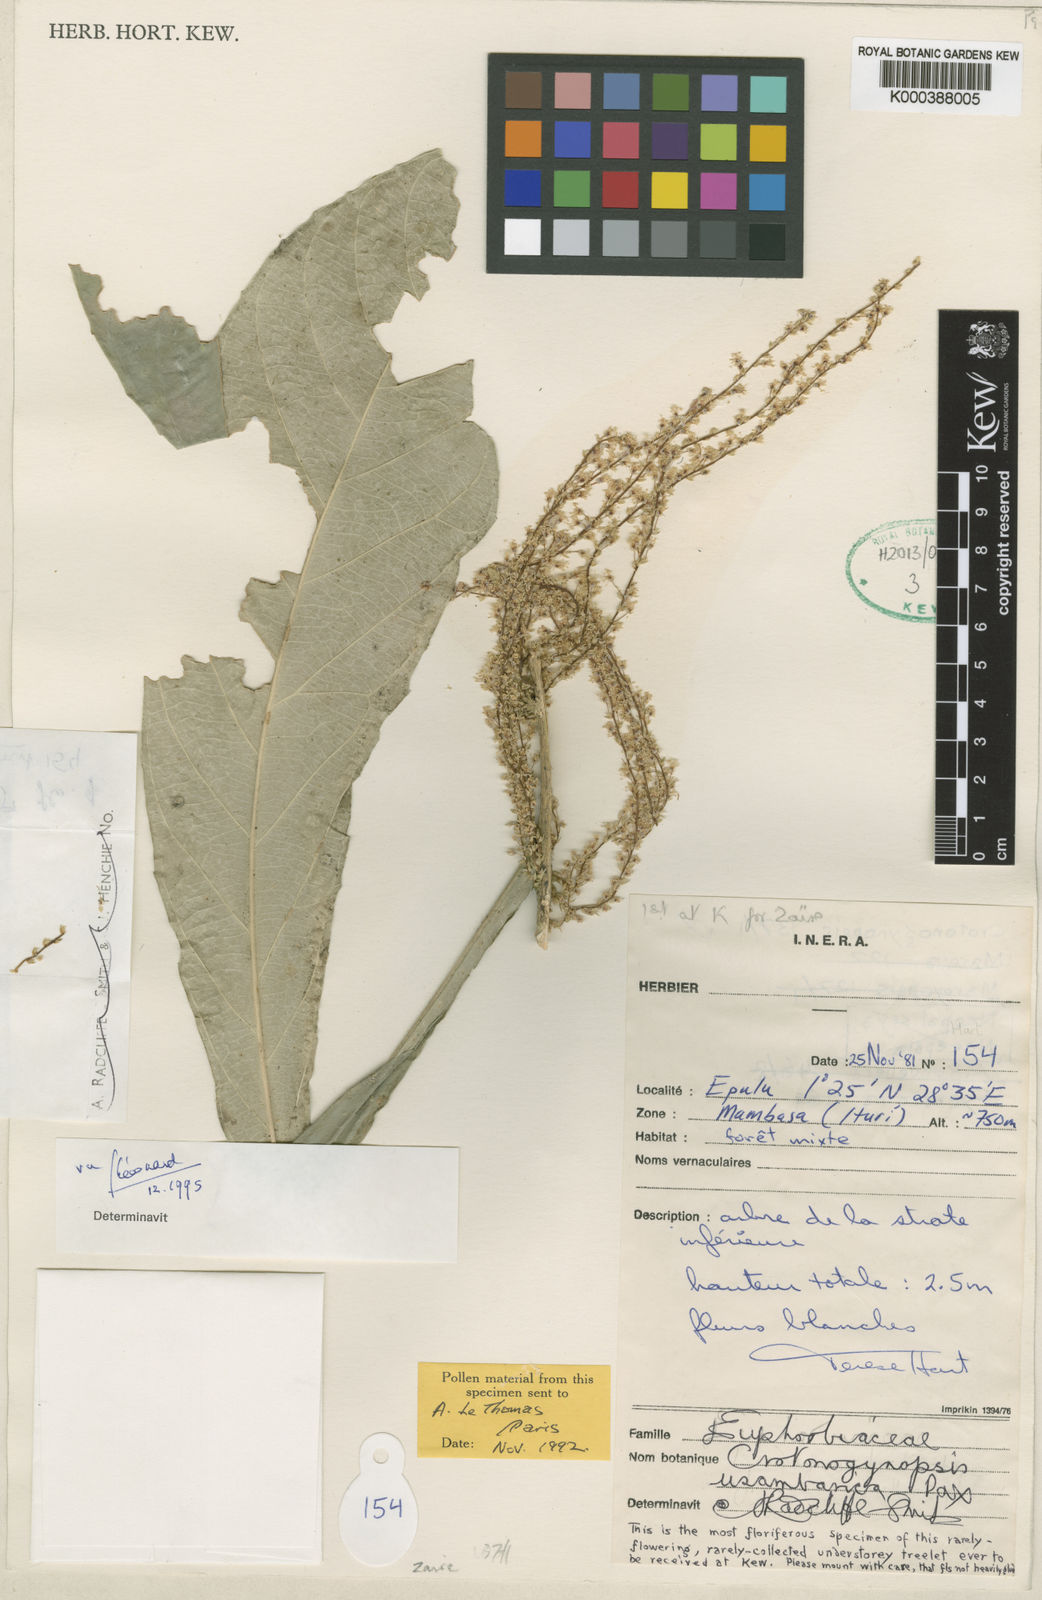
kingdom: Plantae
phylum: Tracheophyta
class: Magnoliopsida
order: Malpighiales
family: Euphorbiaceae
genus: Crotonogynopsis
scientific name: Crotonogynopsis usambarica
